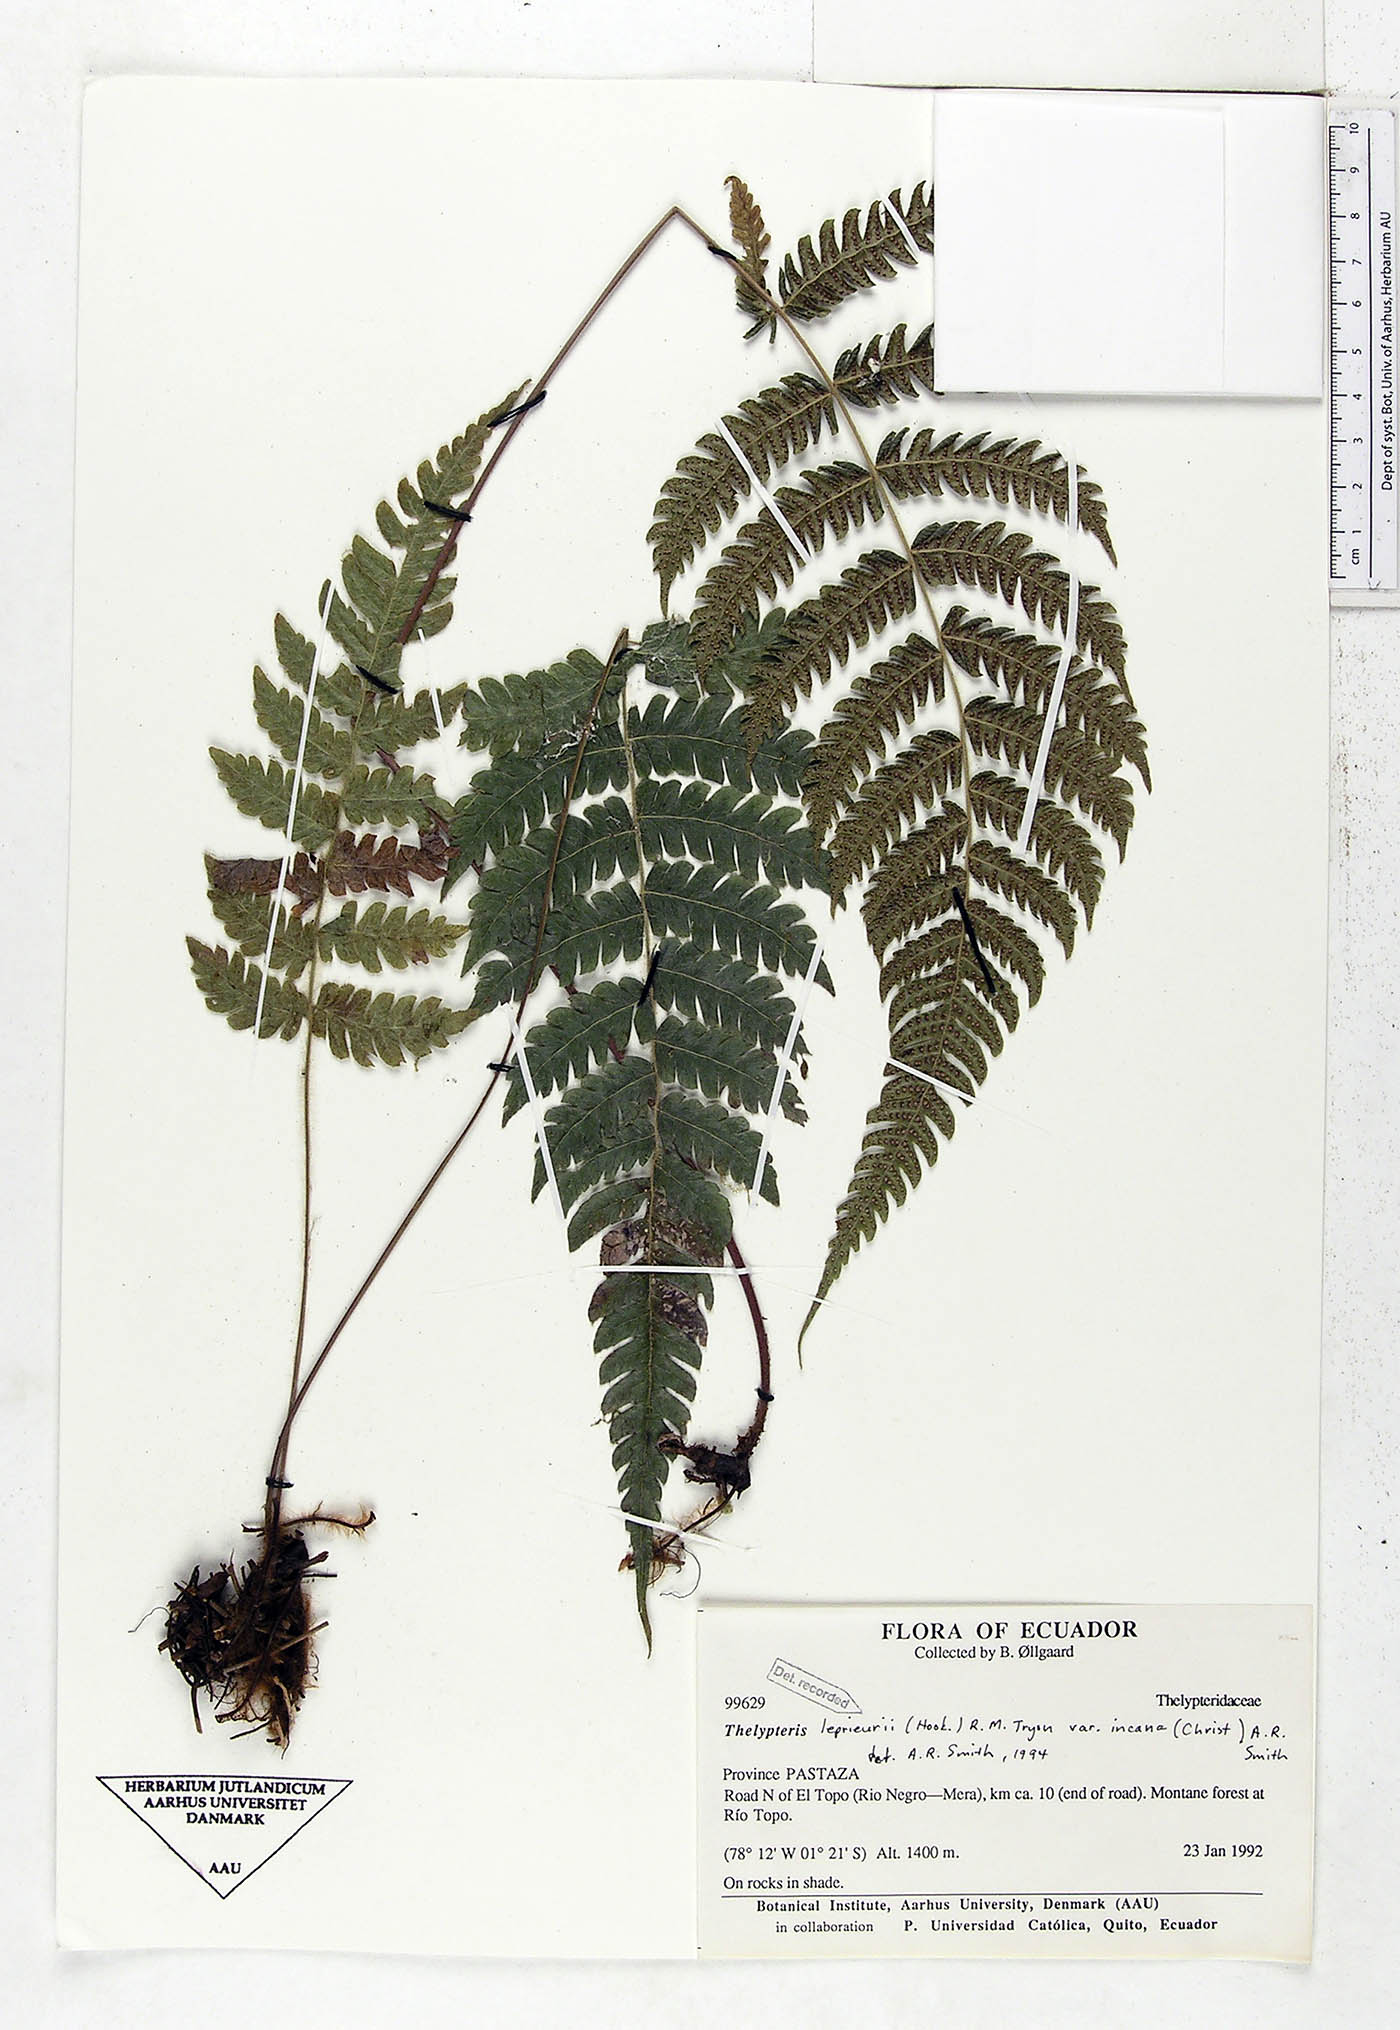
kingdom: Plantae
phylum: Tracheophyta
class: Polypodiopsida
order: Polypodiales
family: Thelypteridaceae
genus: Steiropteris
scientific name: Steiropteris leprieurii
